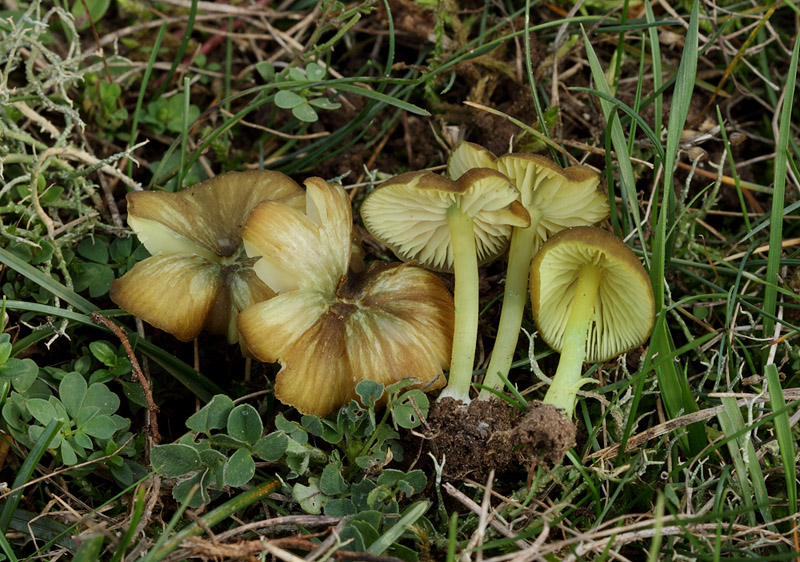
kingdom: Fungi
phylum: Basidiomycota
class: Agaricomycetes
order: Agaricales
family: Entolomataceae
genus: Entoloma
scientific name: Entoloma incanum
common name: grøngul rødblad
